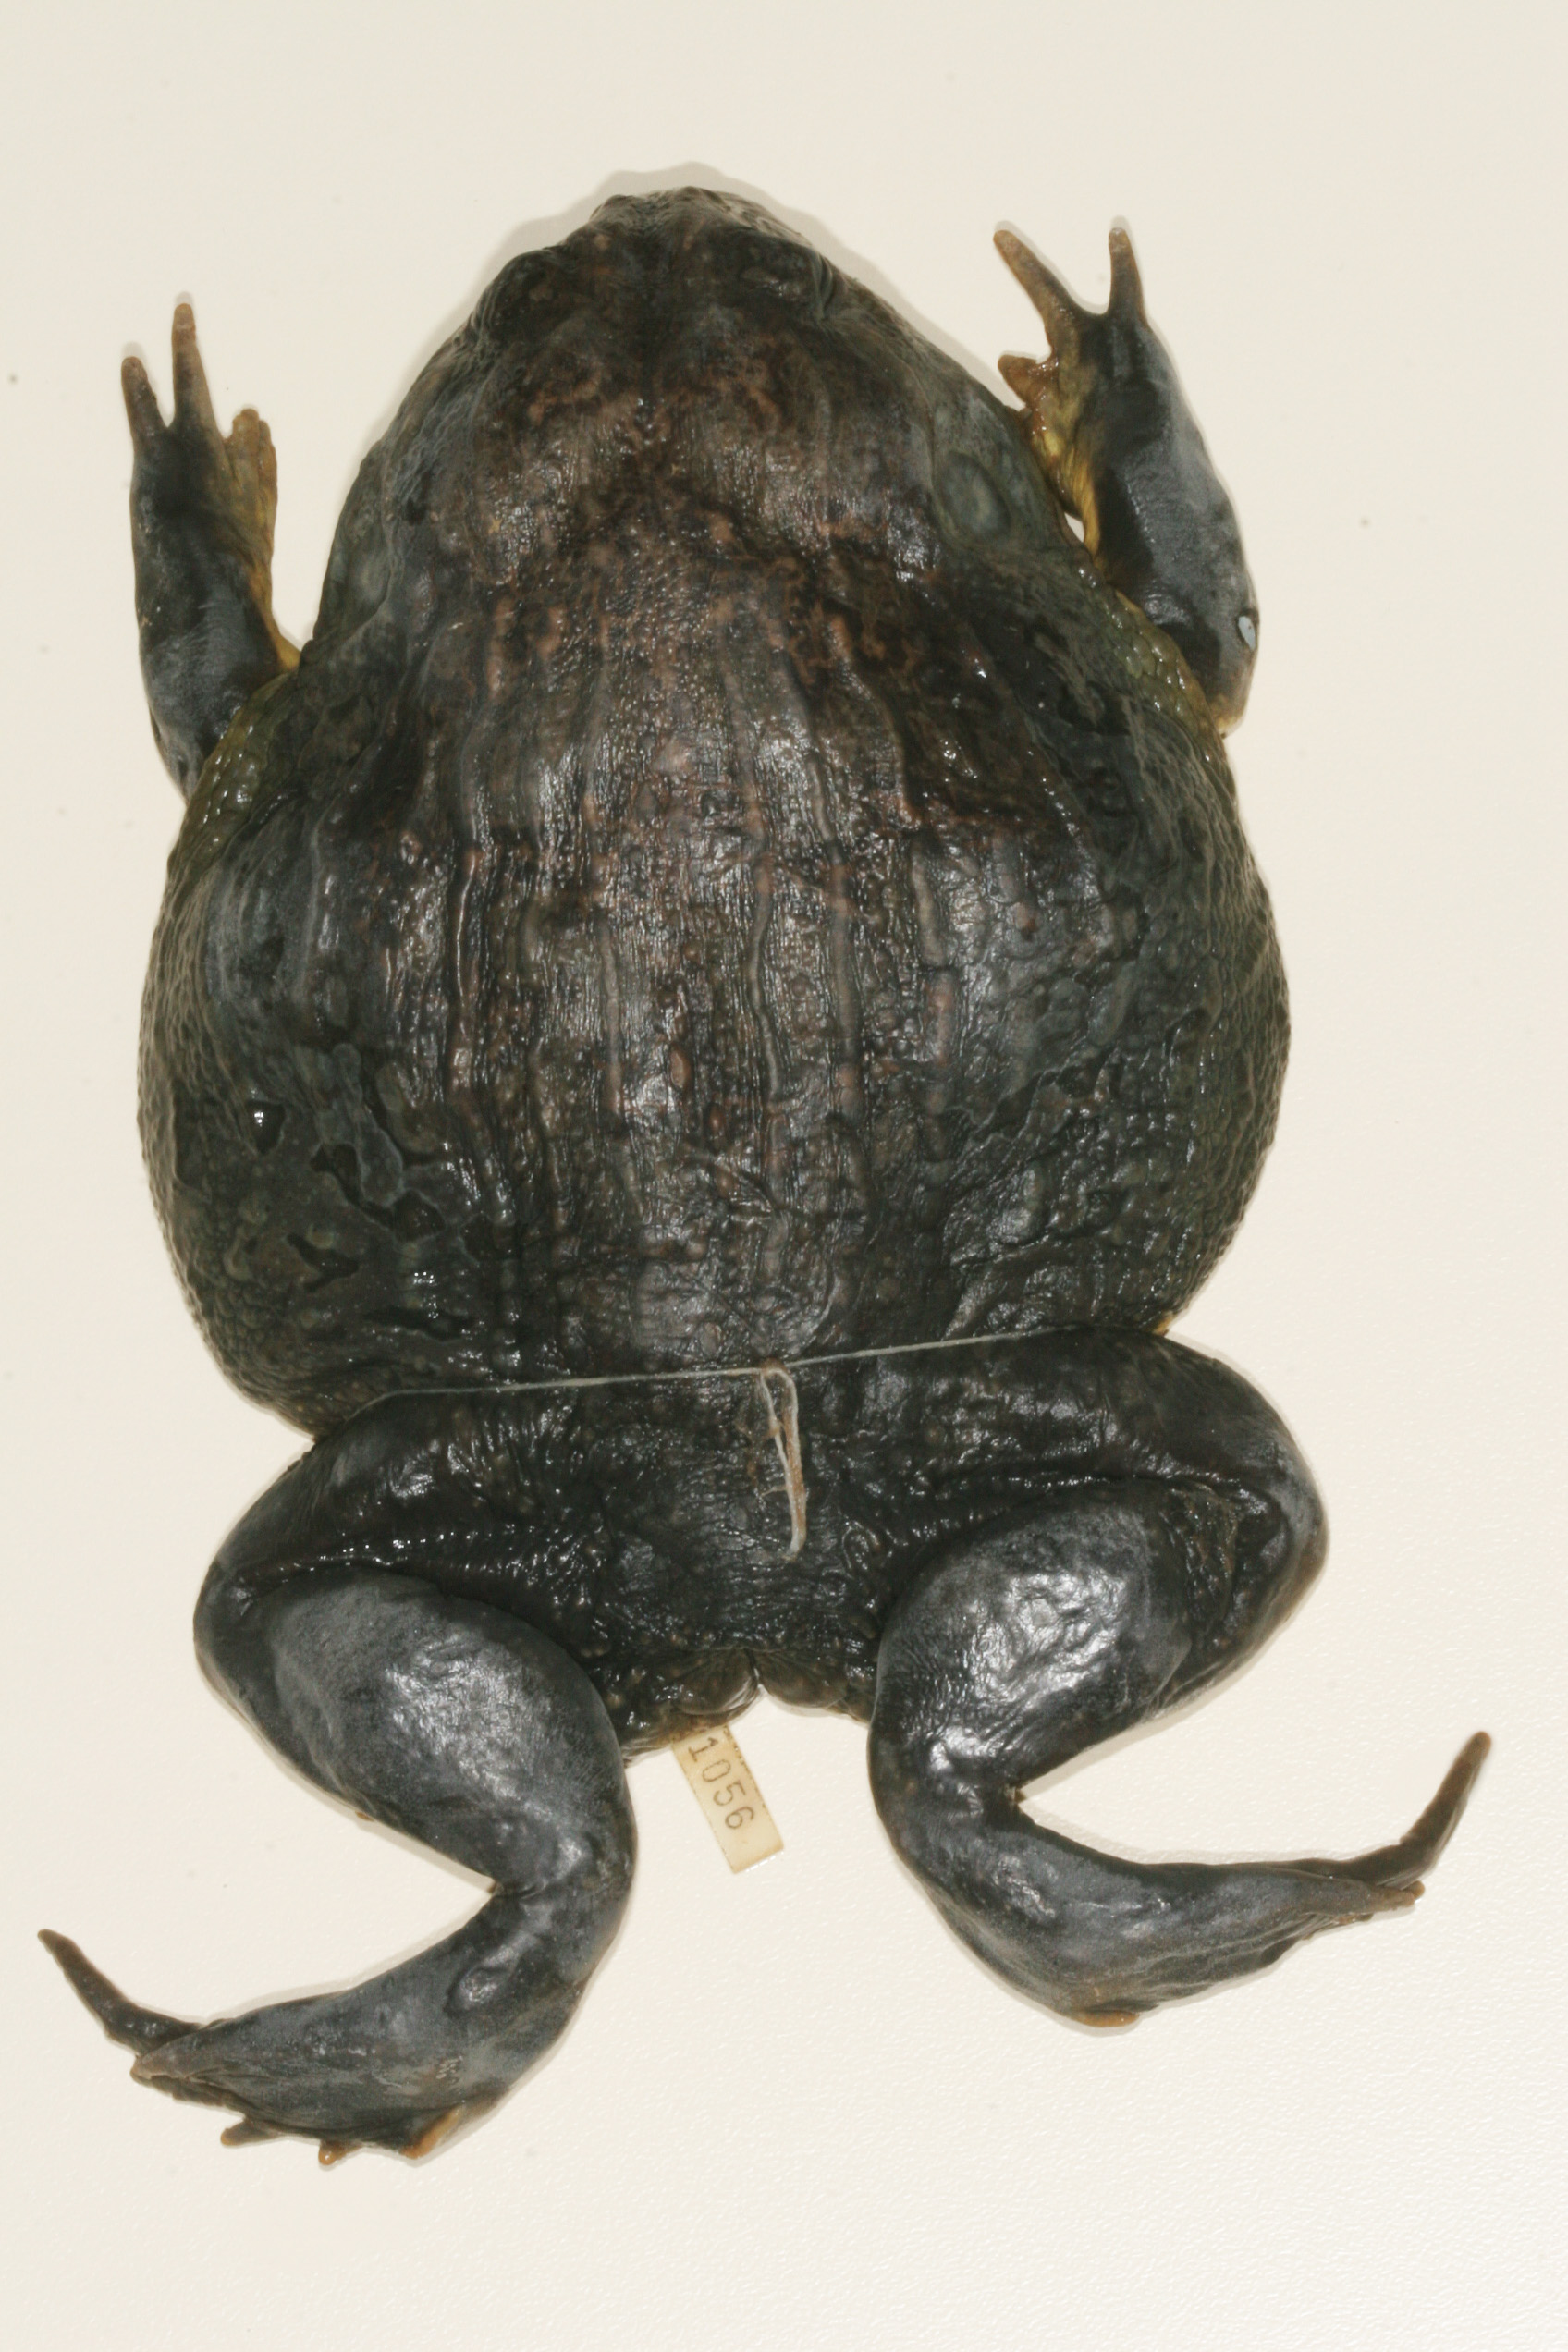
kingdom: Animalia
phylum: Chordata
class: Amphibia
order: Anura
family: Pyxicephalidae
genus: Pyxicephalus
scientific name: Pyxicephalus adspersus
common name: African bullfrog
